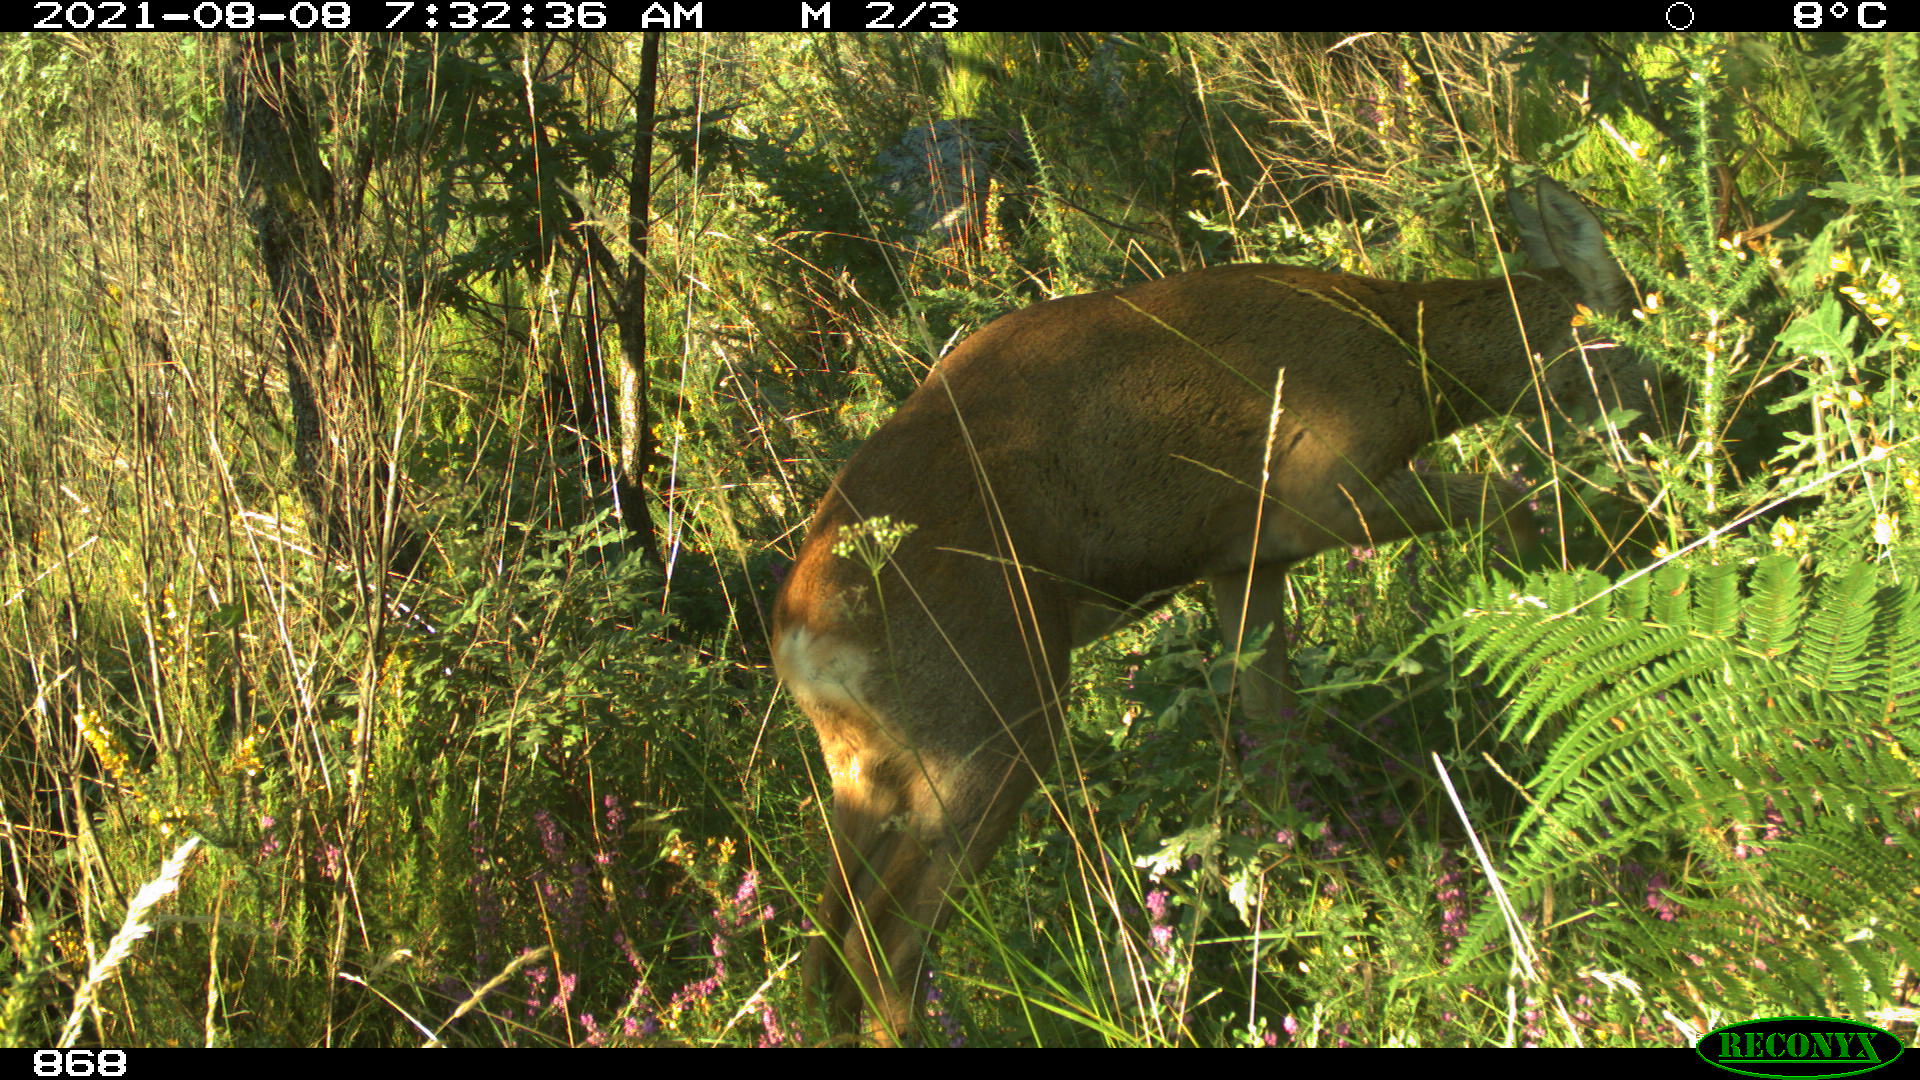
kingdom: Animalia
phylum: Chordata
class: Mammalia
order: Artiodactyla
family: Cervidae
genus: Capreolus
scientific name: Capreolus capreolus
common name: Western roe deer
